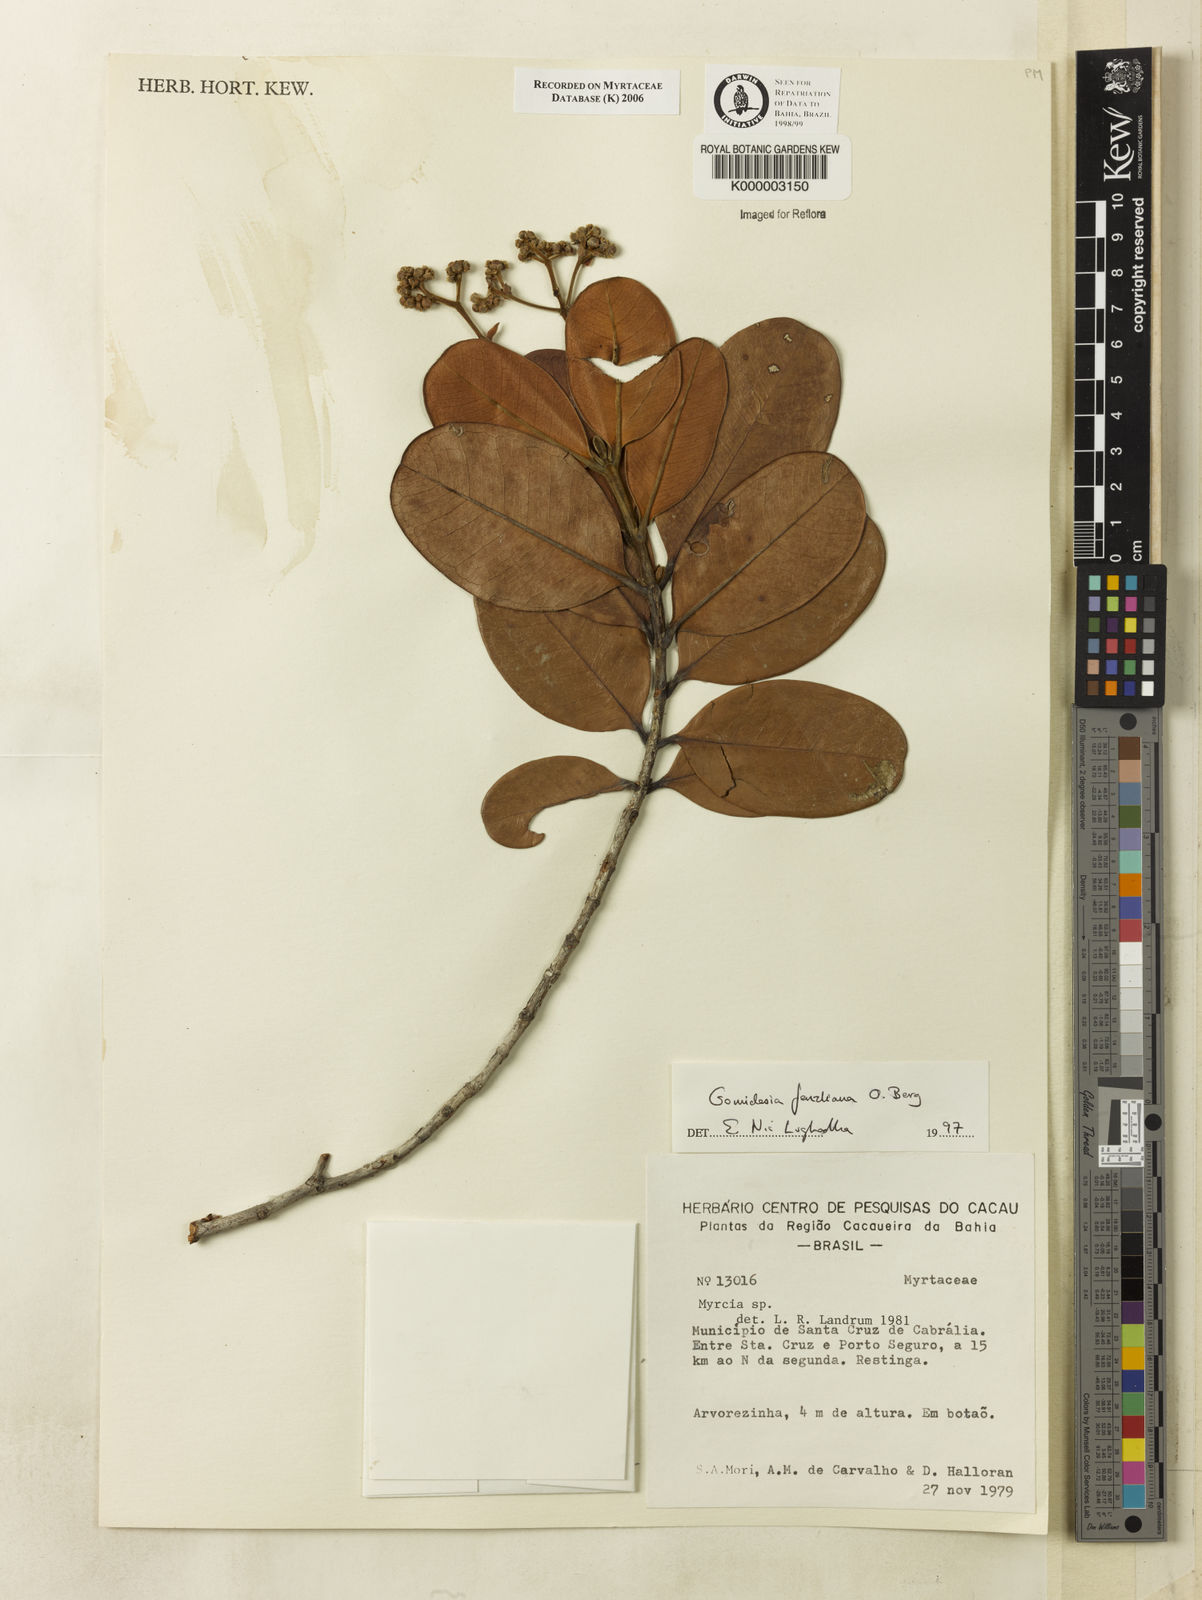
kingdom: Plantae
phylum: Tracheophyta
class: Magnoliopsida
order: Myrtales
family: Myrtaceae
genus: Myrcia
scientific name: Myrcia ilheosensis
